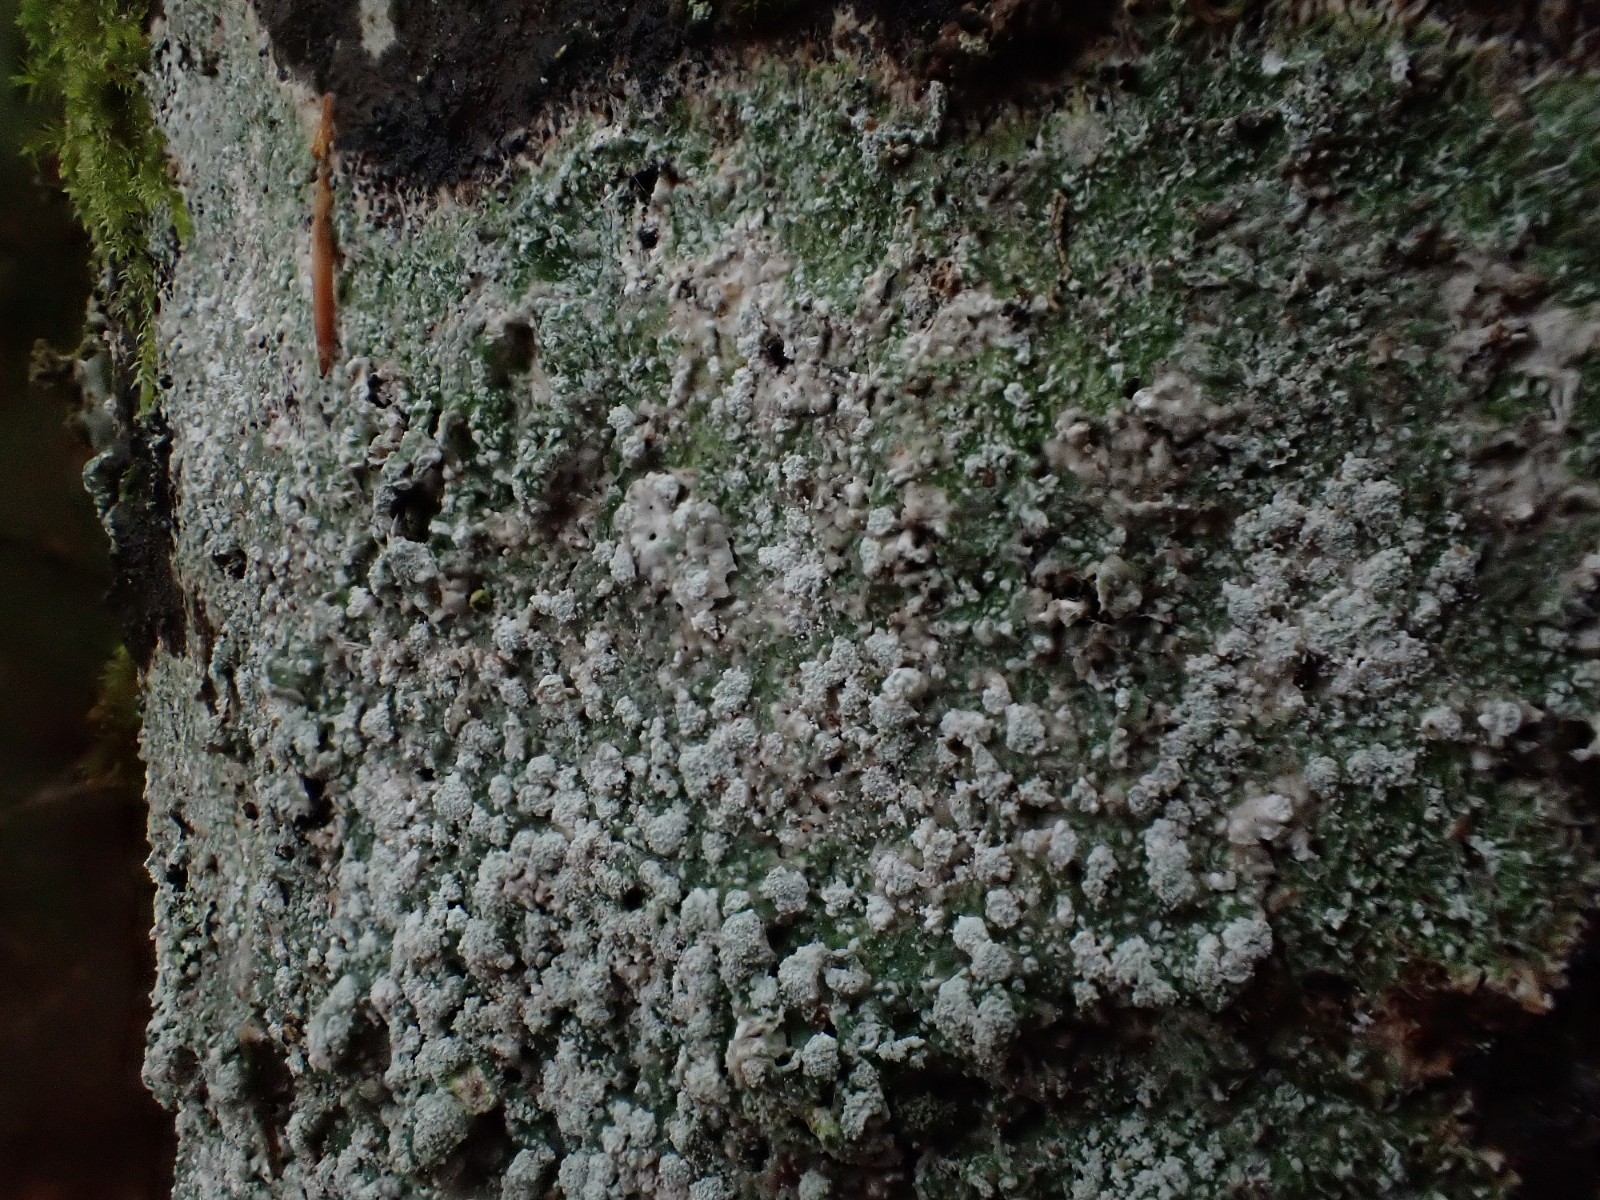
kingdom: Fungi
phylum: Ascomycota
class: Lecanoromycetes
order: Pertusariales
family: Pertusariaceae
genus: Lepra
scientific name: Lepra amara
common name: bitter prikvortelav
